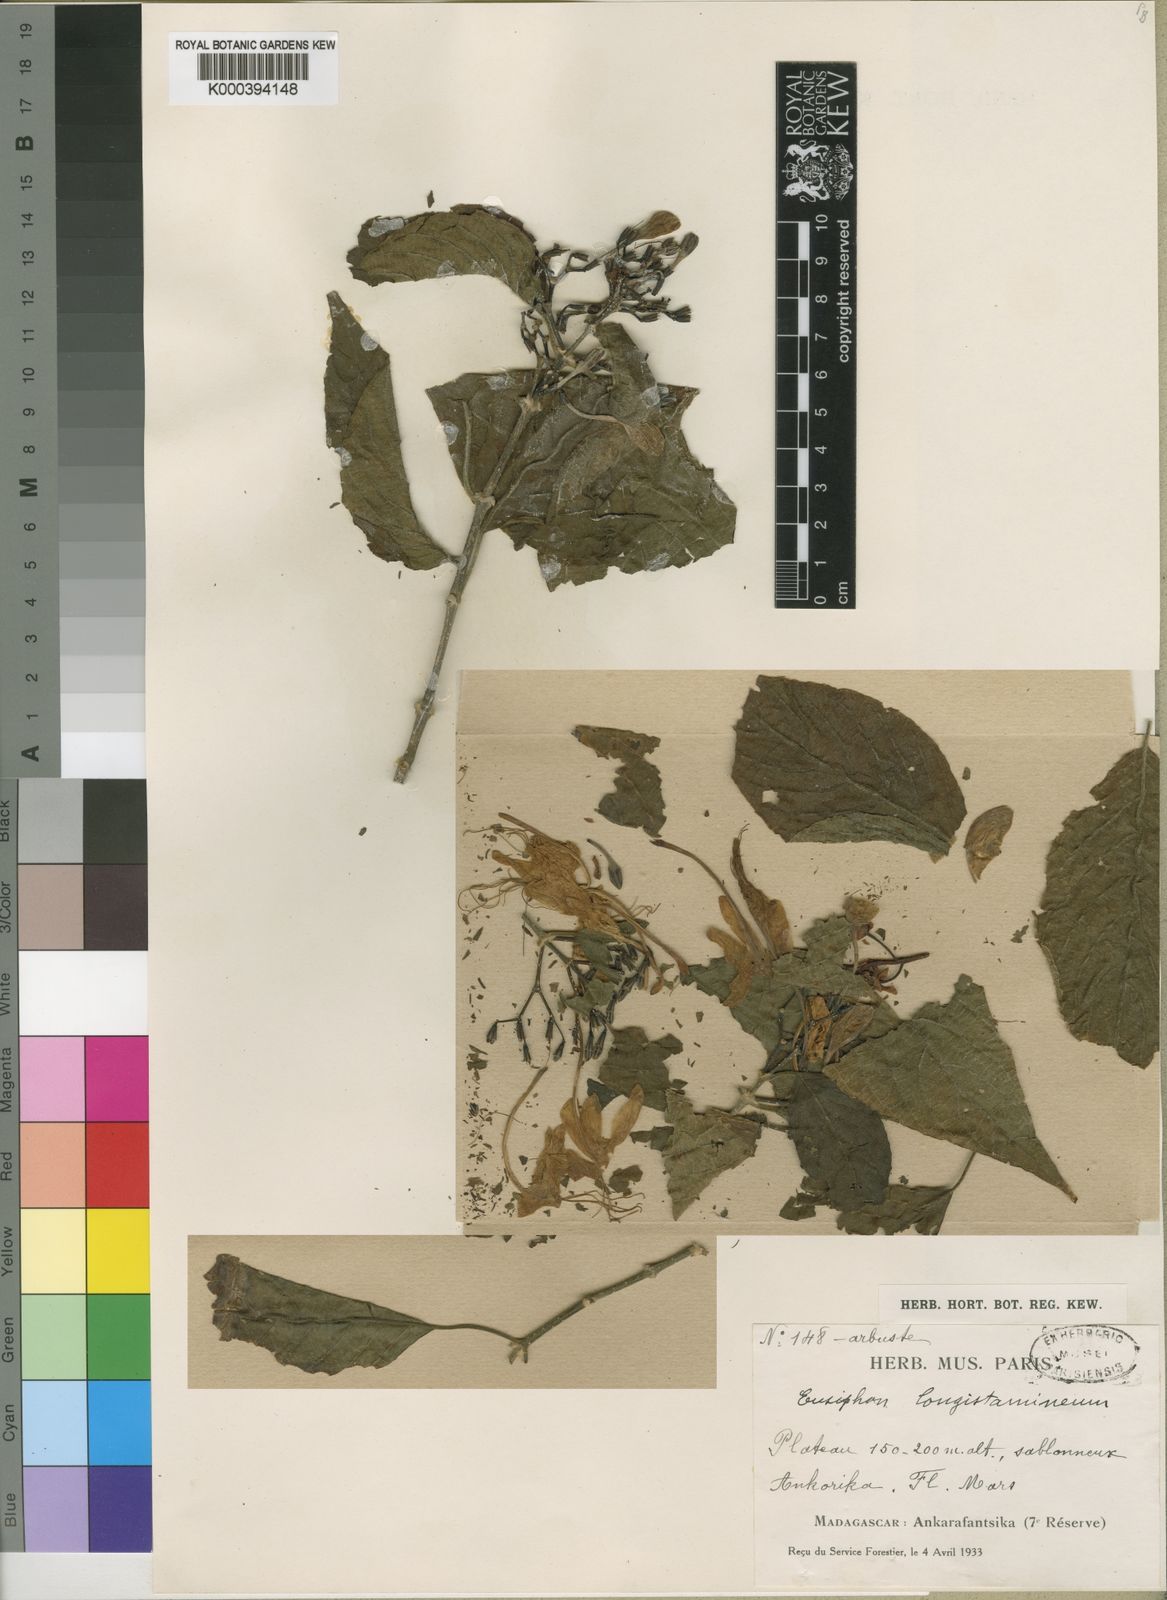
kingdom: Plantae
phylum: Tracheophyta
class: Magnoliopsida
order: Lamiales
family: Acanthaceae
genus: Ruellia
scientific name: Ruellia geayi
